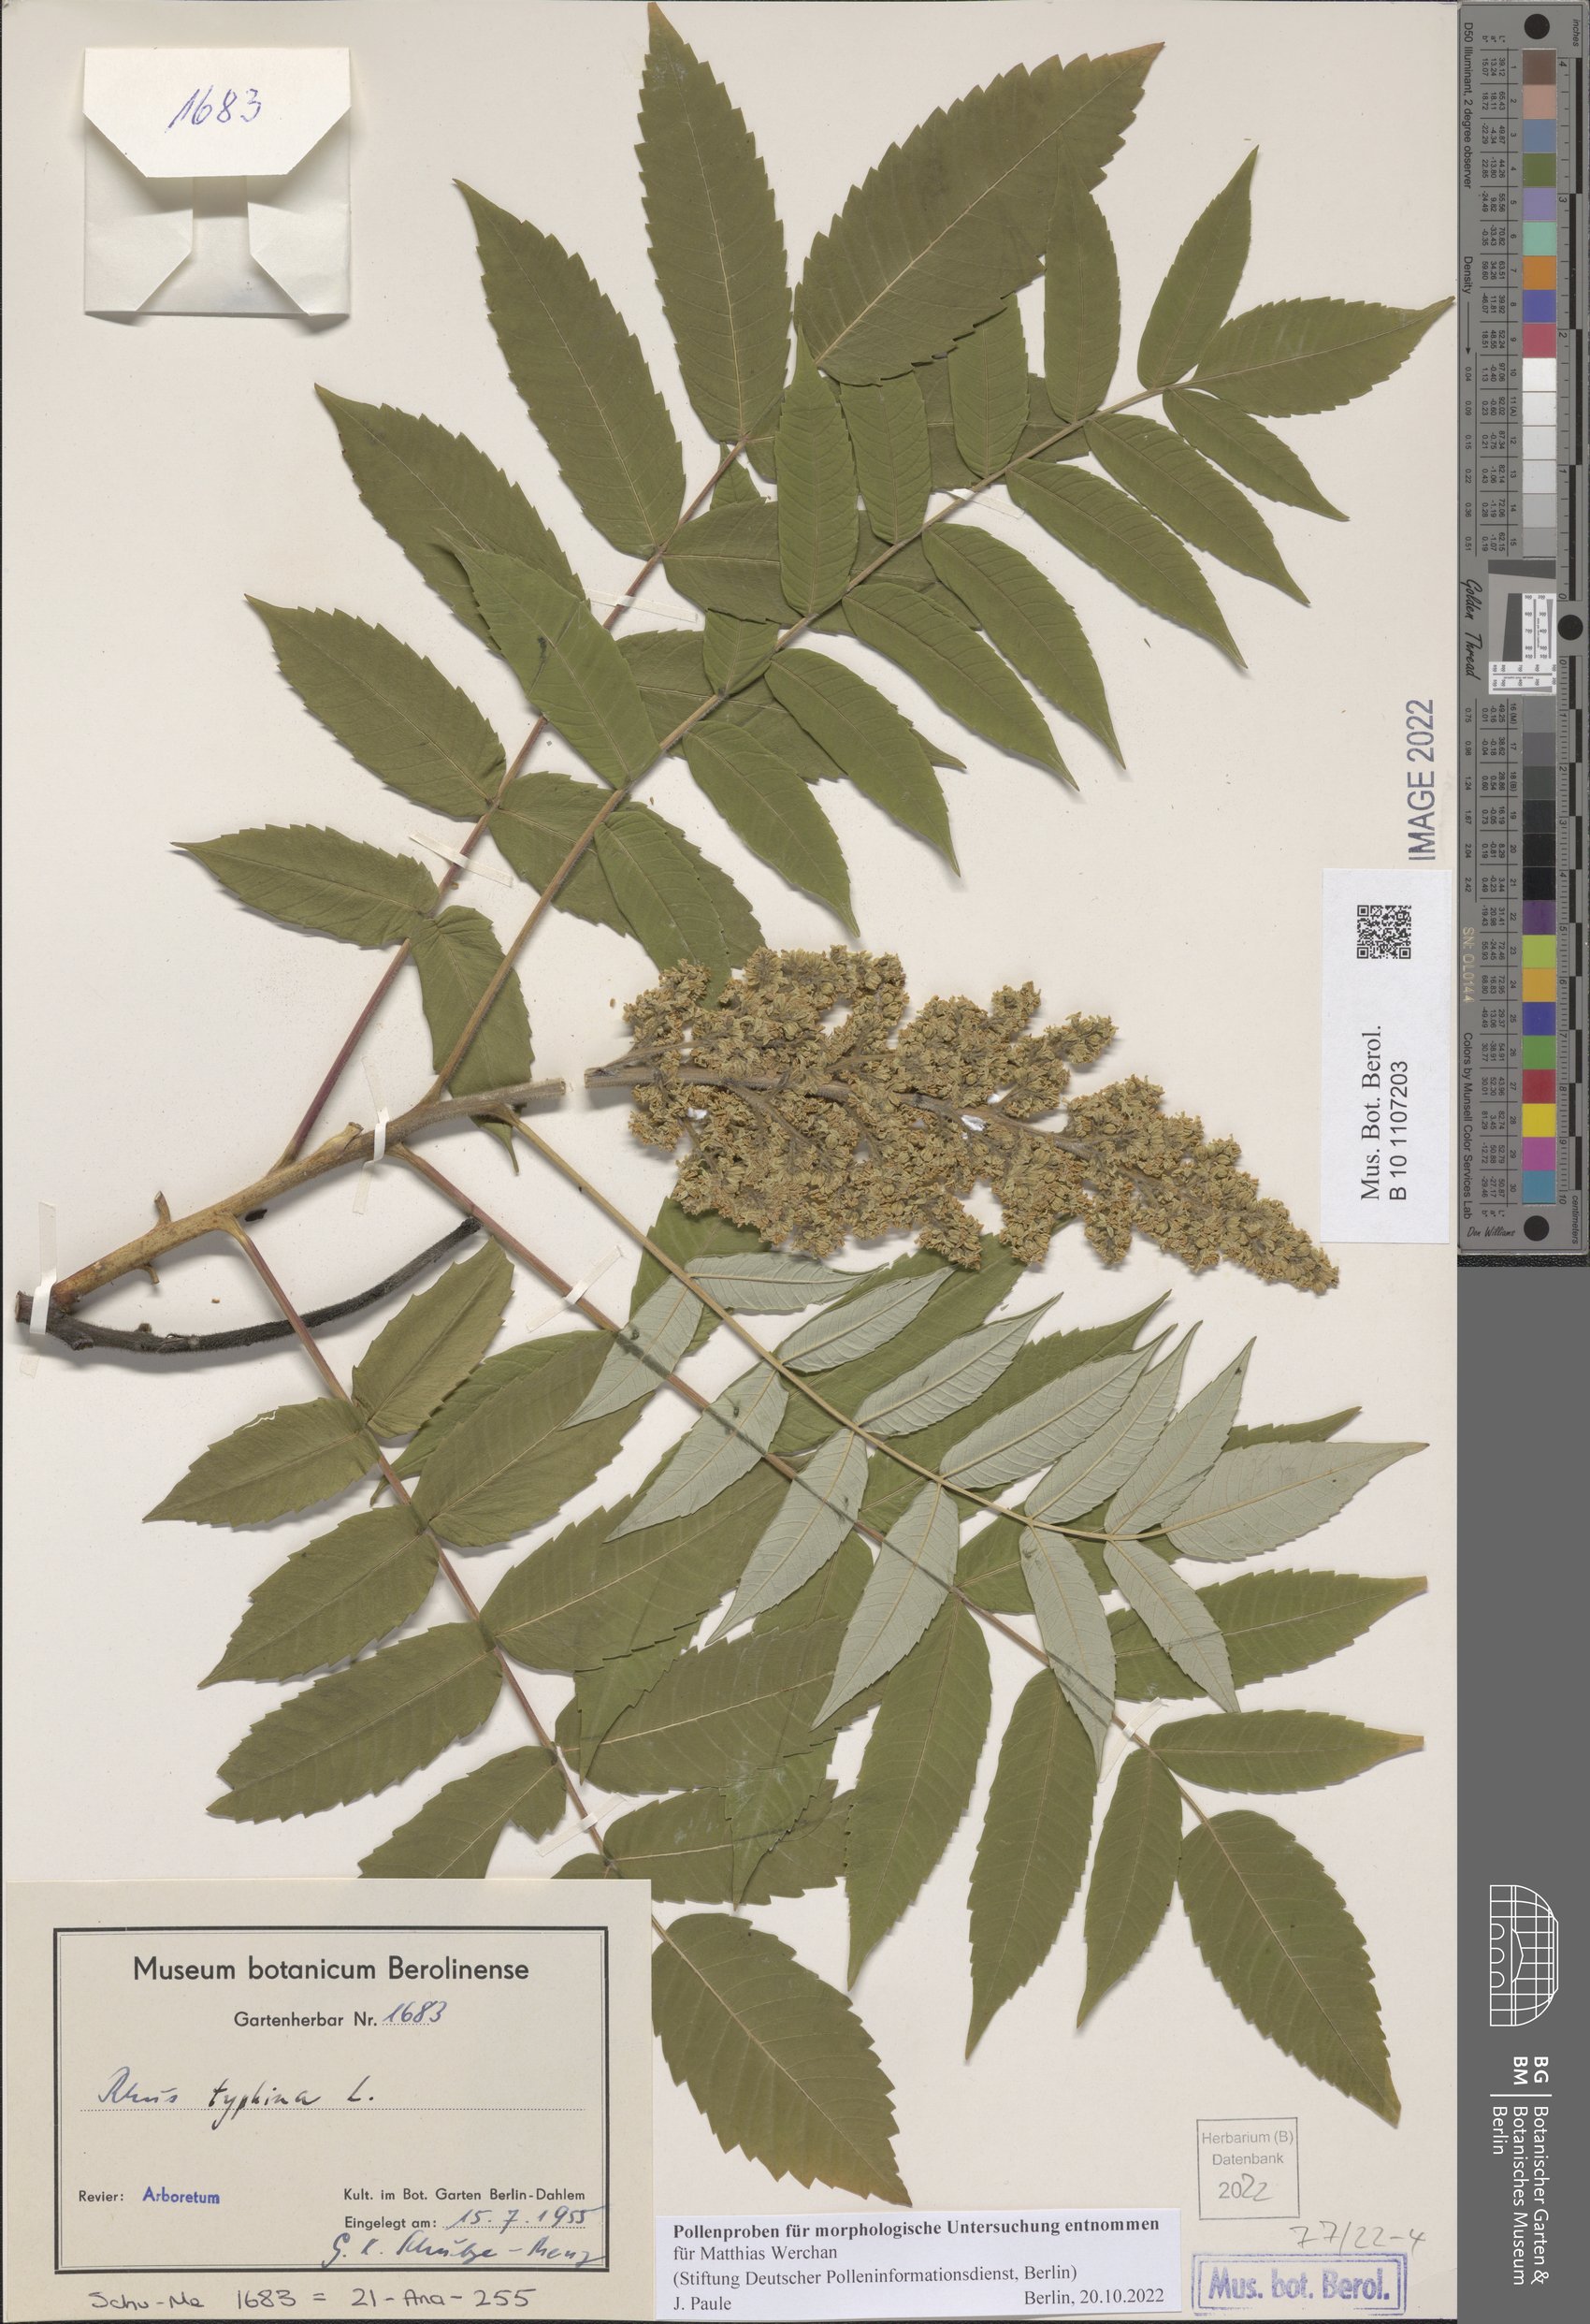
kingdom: Plantae
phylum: Tracheophyta
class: Magnoliopsida
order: Sapindales
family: Anacardiaceae
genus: Rhus
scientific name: Rhus typhina
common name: Staghorn sumac
